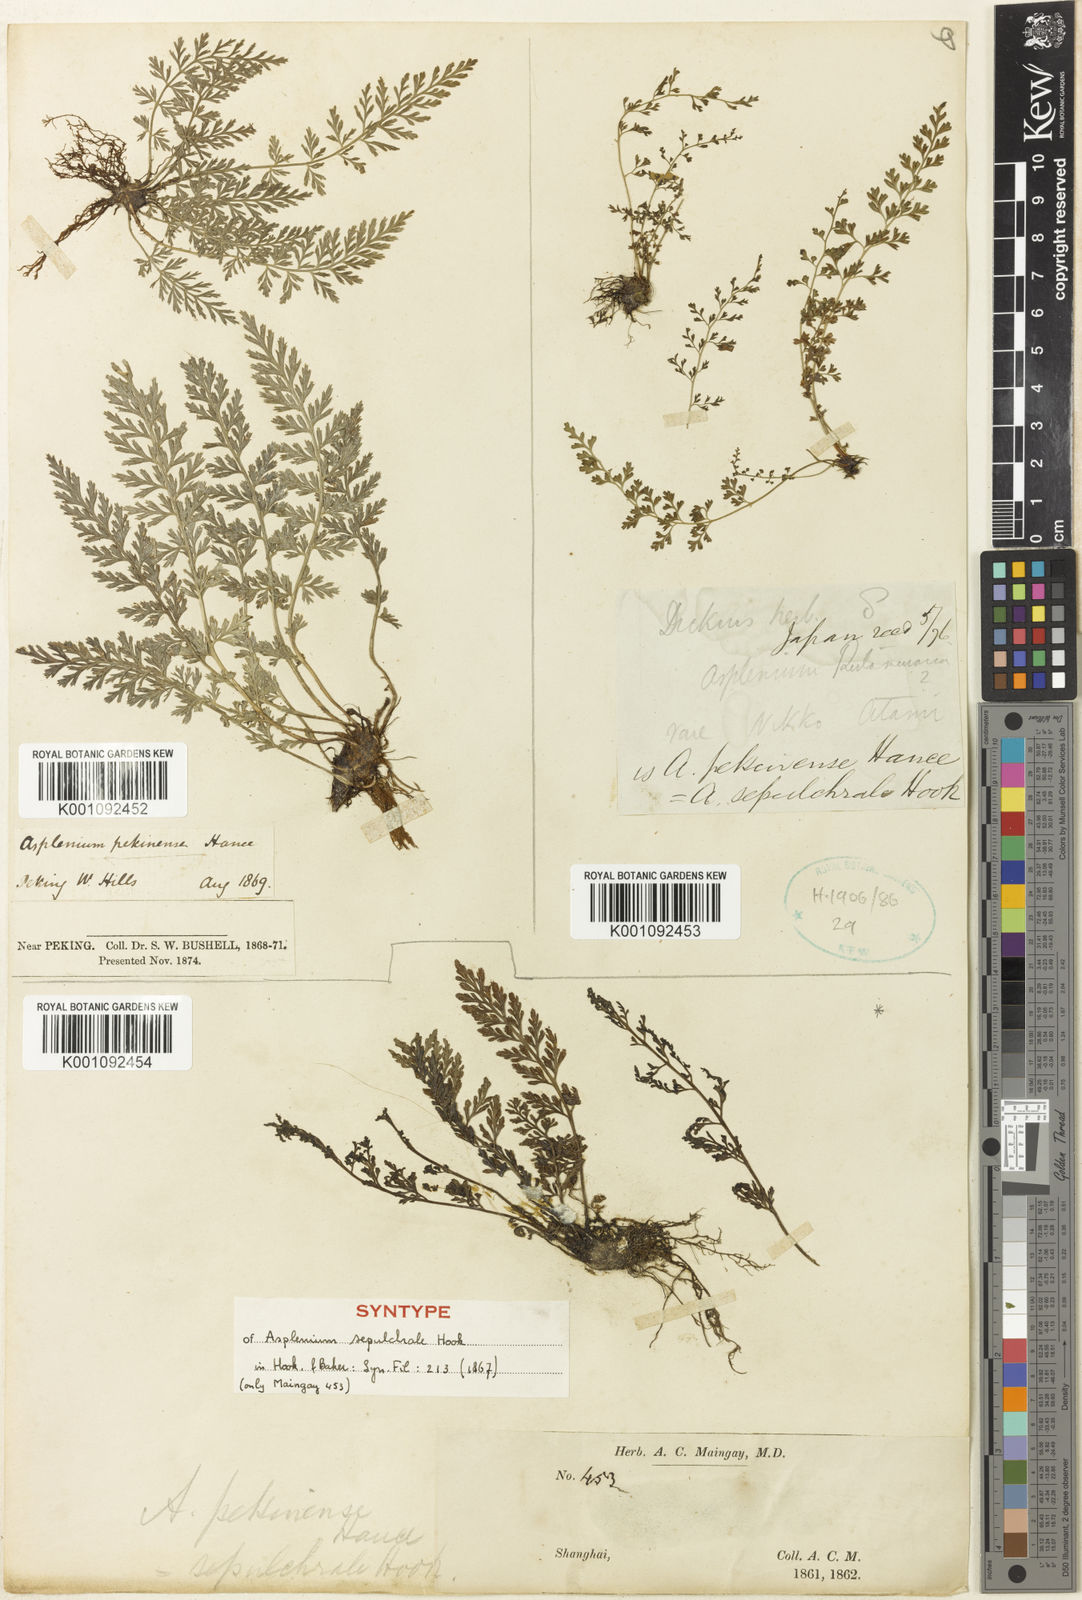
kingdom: Plantae
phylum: Tracheophyta
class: Polypodiopsida
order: Polypodiales
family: Aspleniaceae
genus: Asplenium
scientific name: Asplenium sarelii
